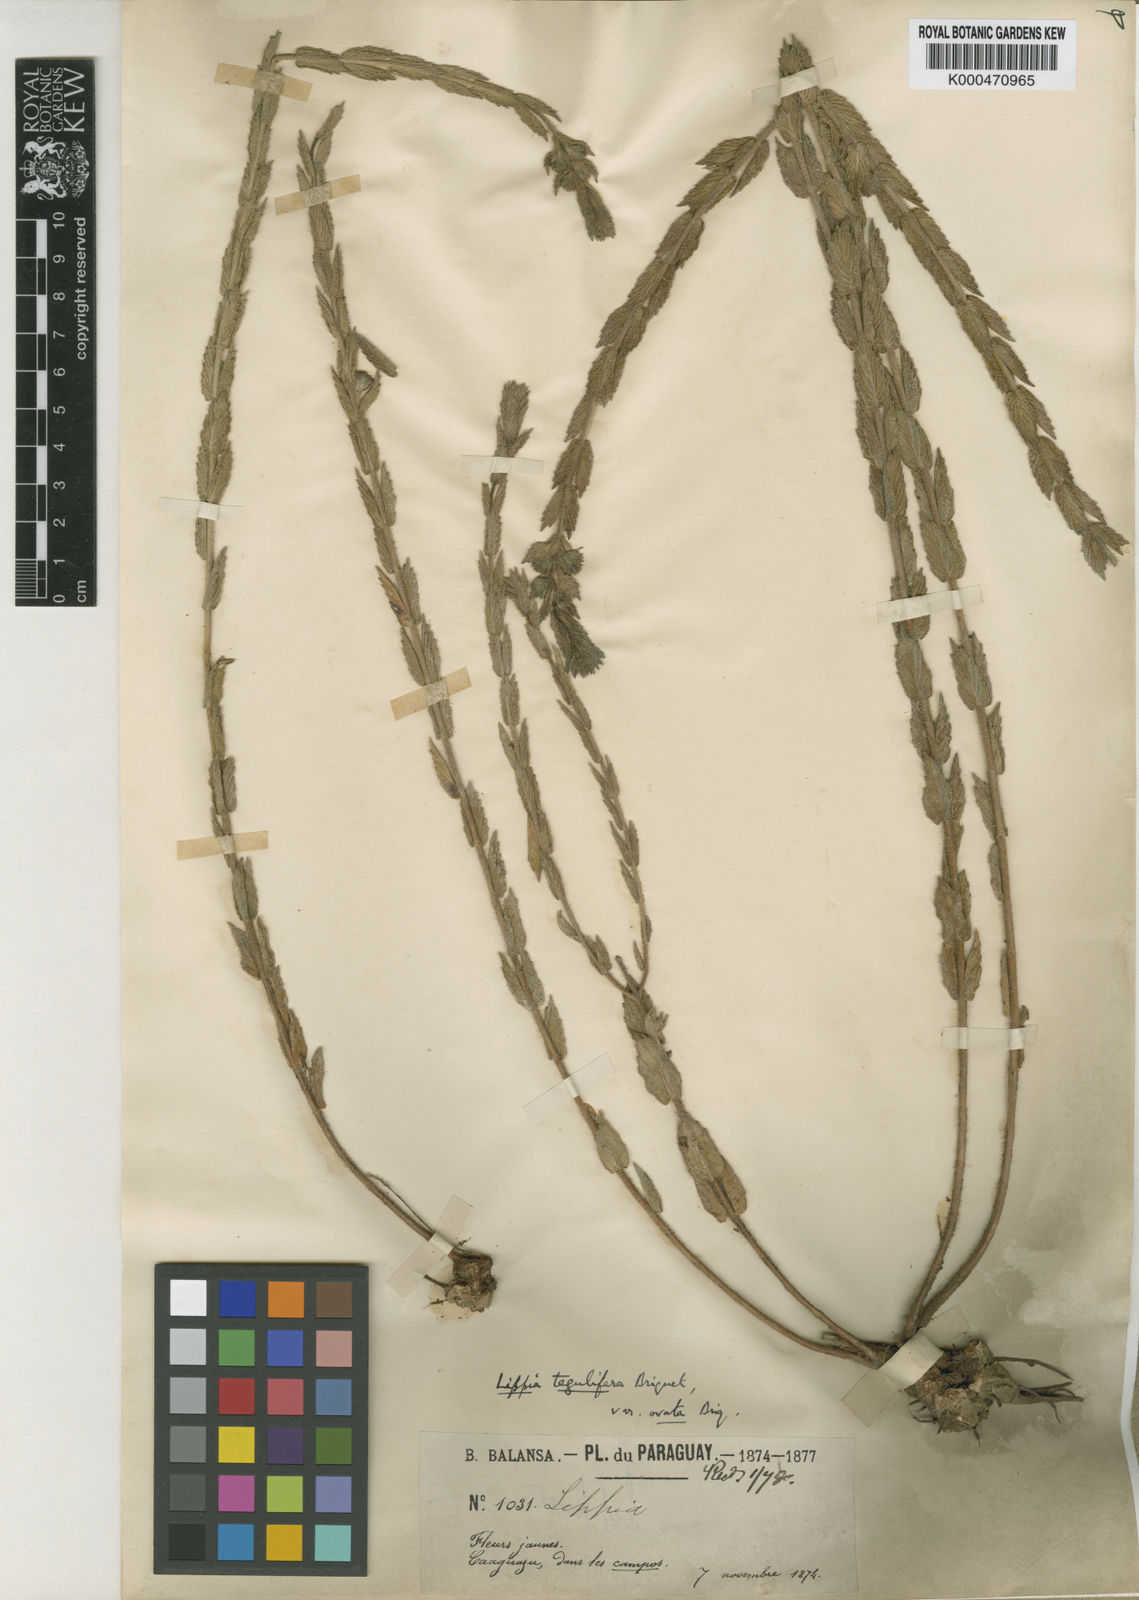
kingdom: Plantae
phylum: Tracheophyta
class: Magnoliopsida
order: Lamiales
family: Verbenaceae
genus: Lippia
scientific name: Lippia tegulifera
